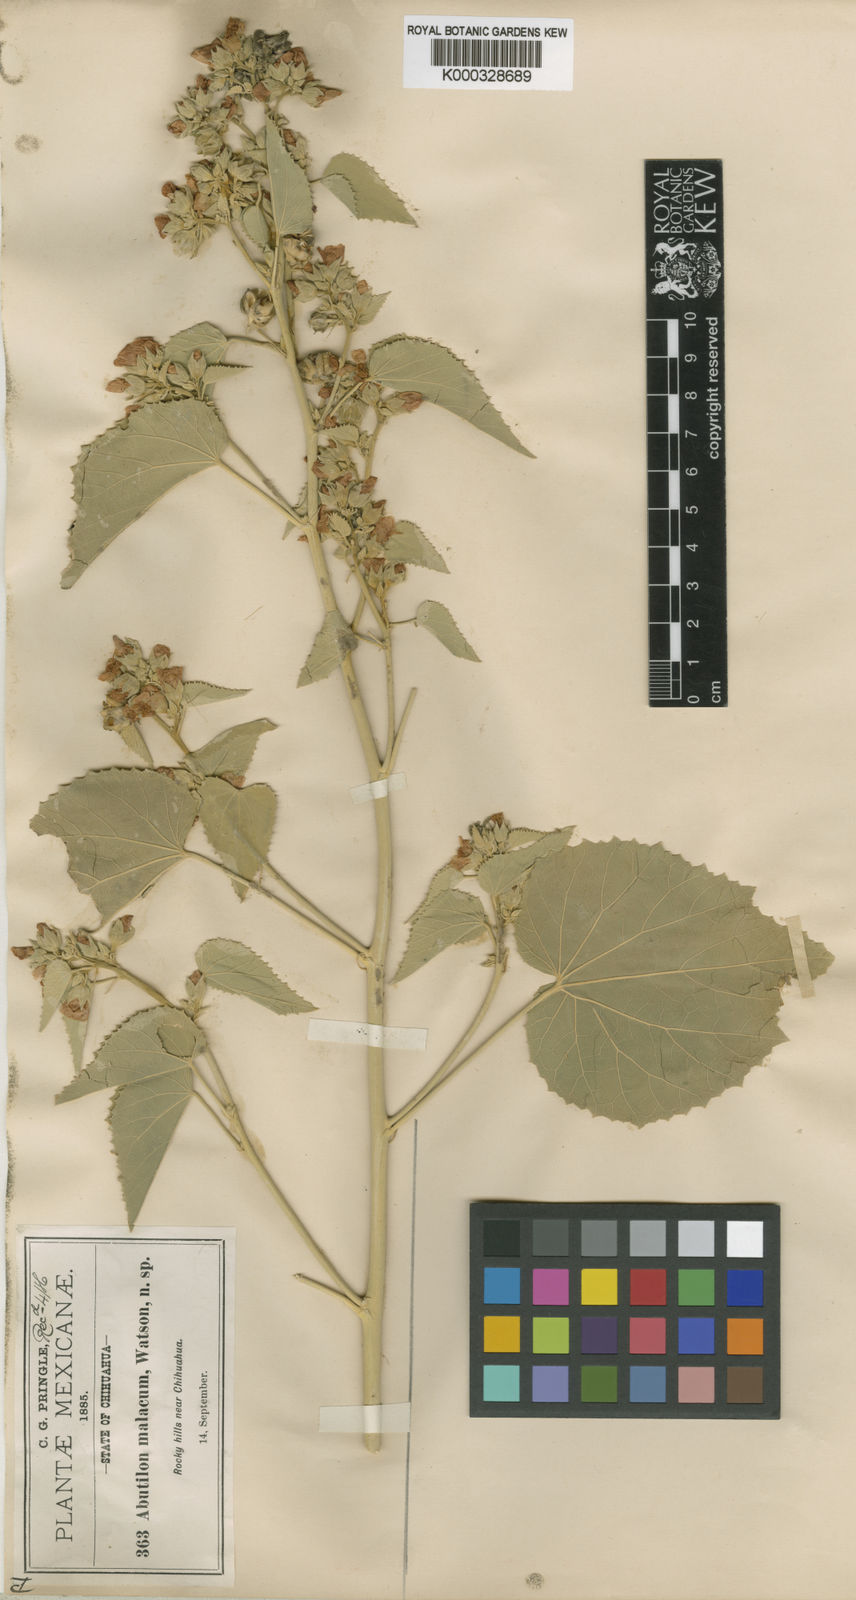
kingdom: Plantae
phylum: Tracheophyta
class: Magnoliopsida
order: Malvales
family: Malvaceae
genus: Abutilon
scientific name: Abutilon malacum
